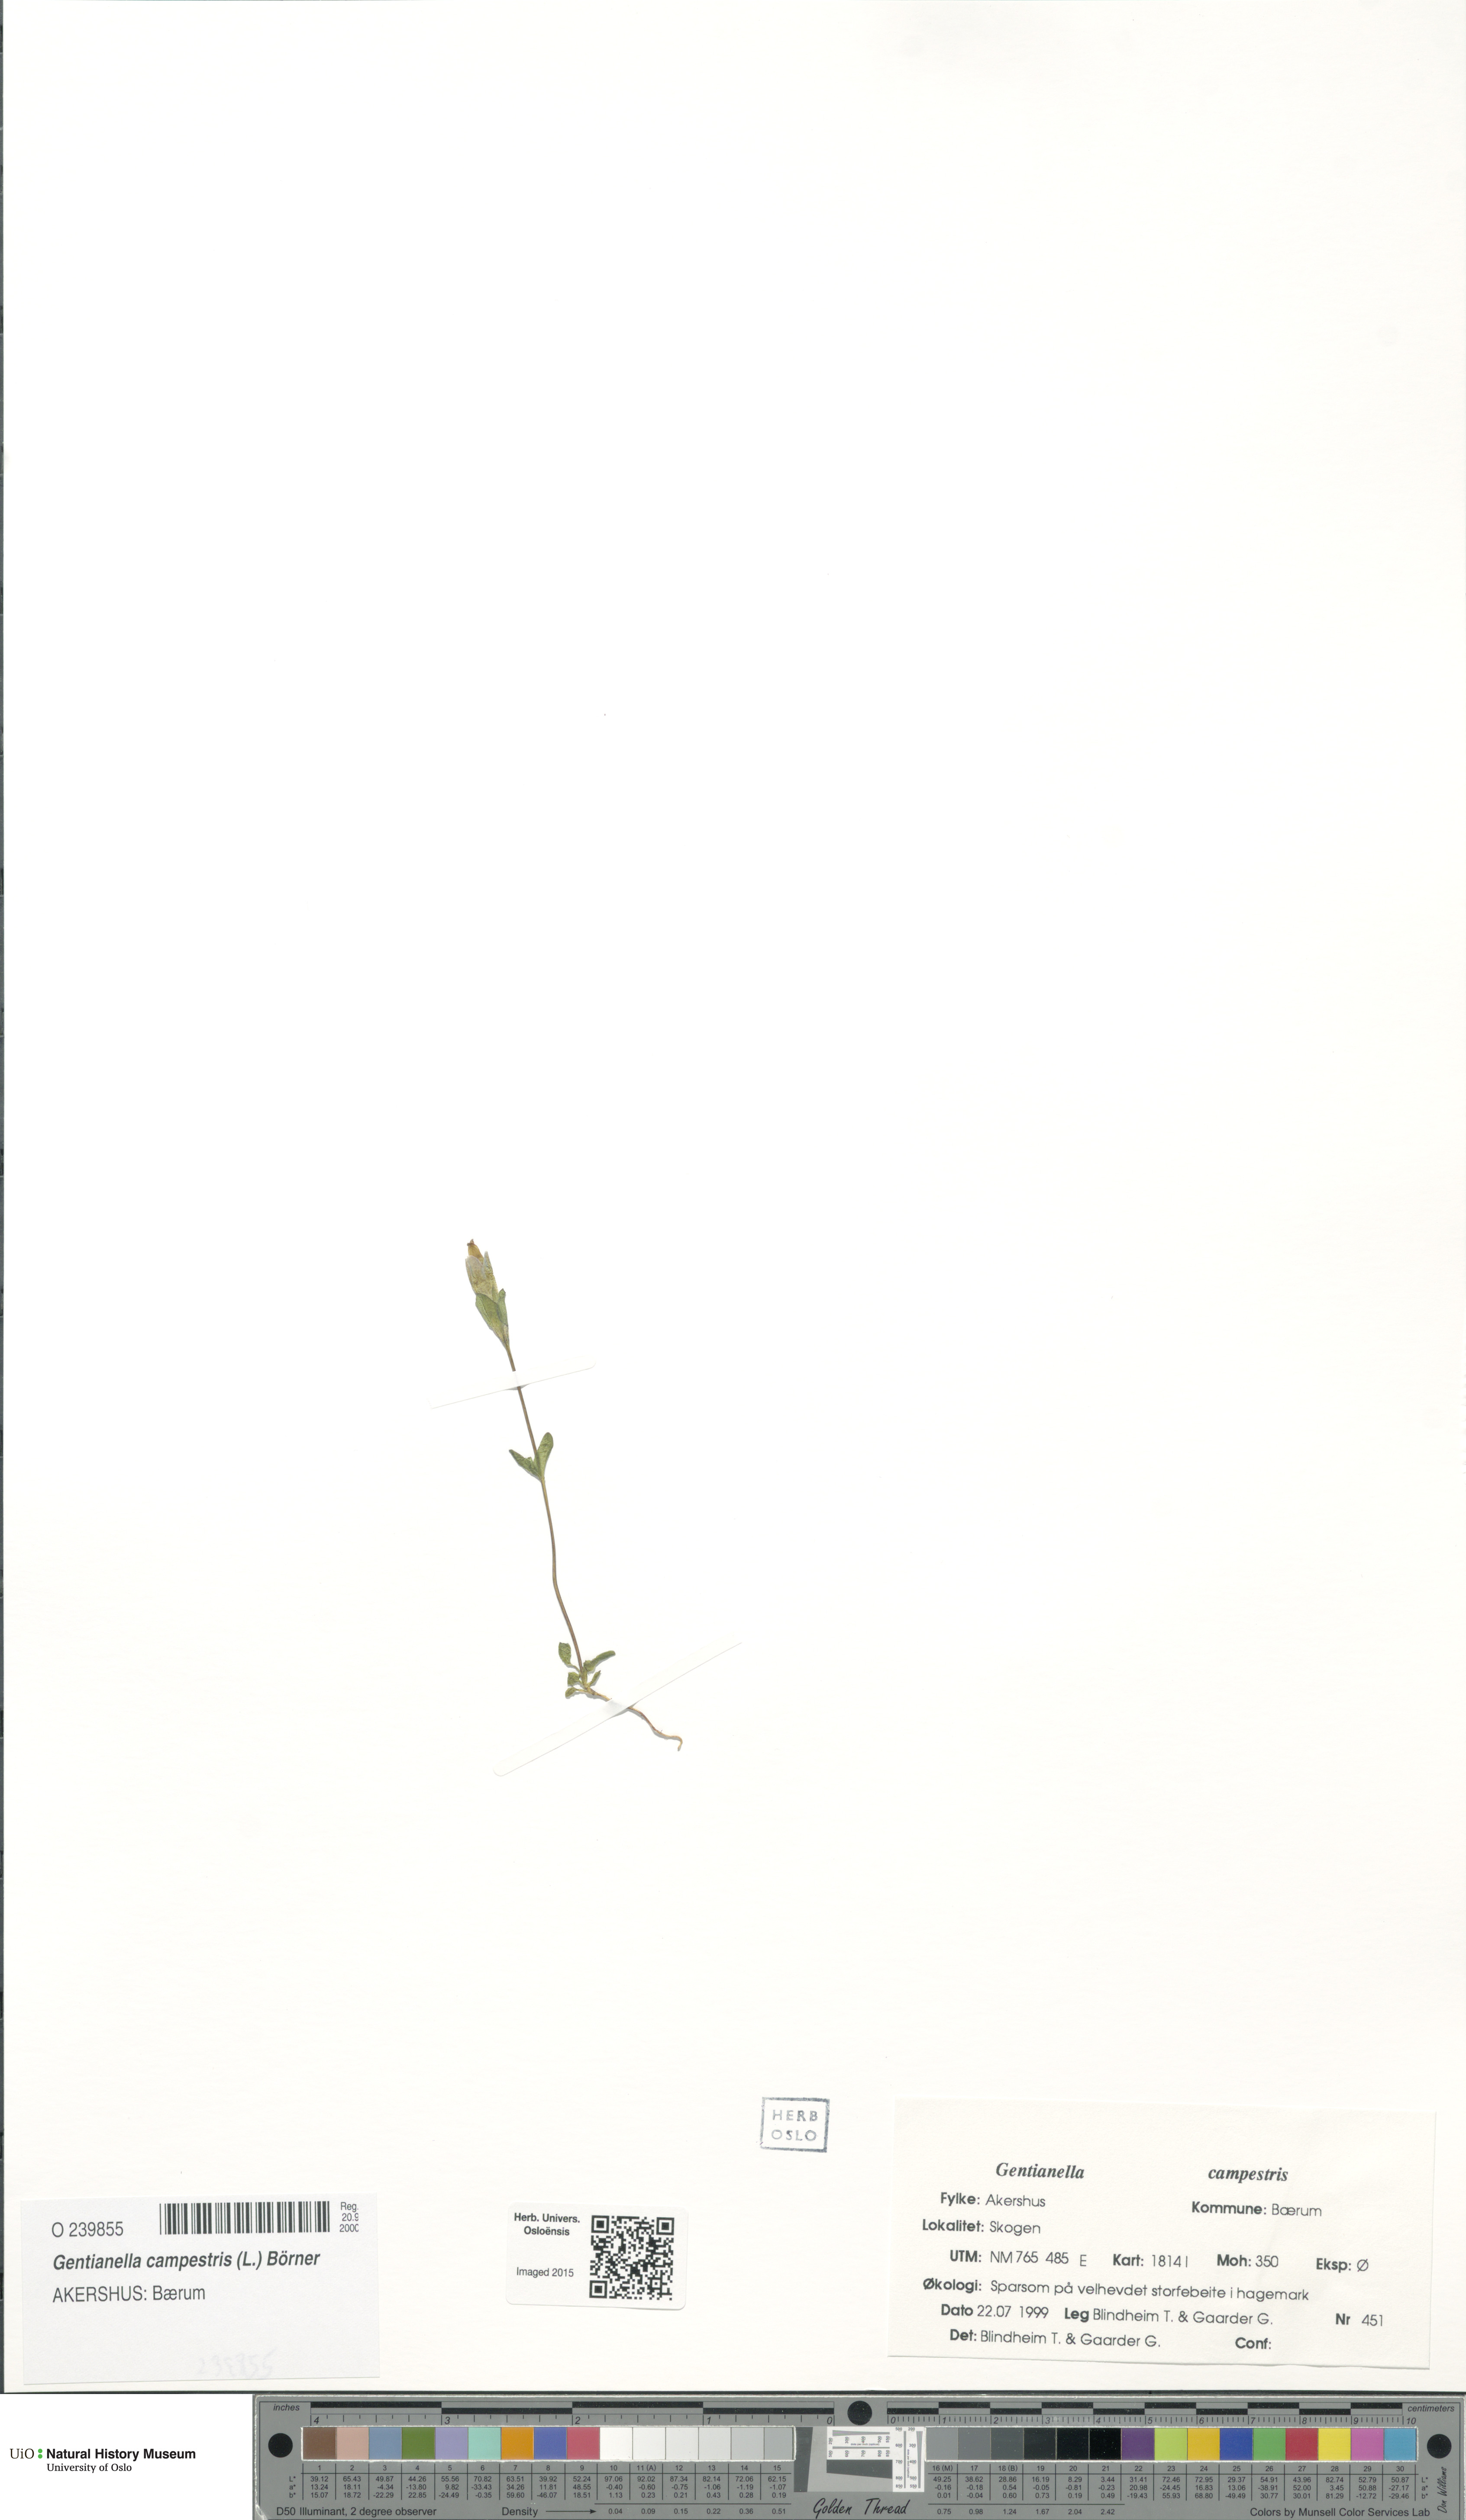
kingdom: Plantae
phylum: Tracheophyta
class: Magnoliopsida
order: Gentianales
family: Gentianaceae
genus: Gentianella
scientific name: Gentianella campestris
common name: Field gentian
